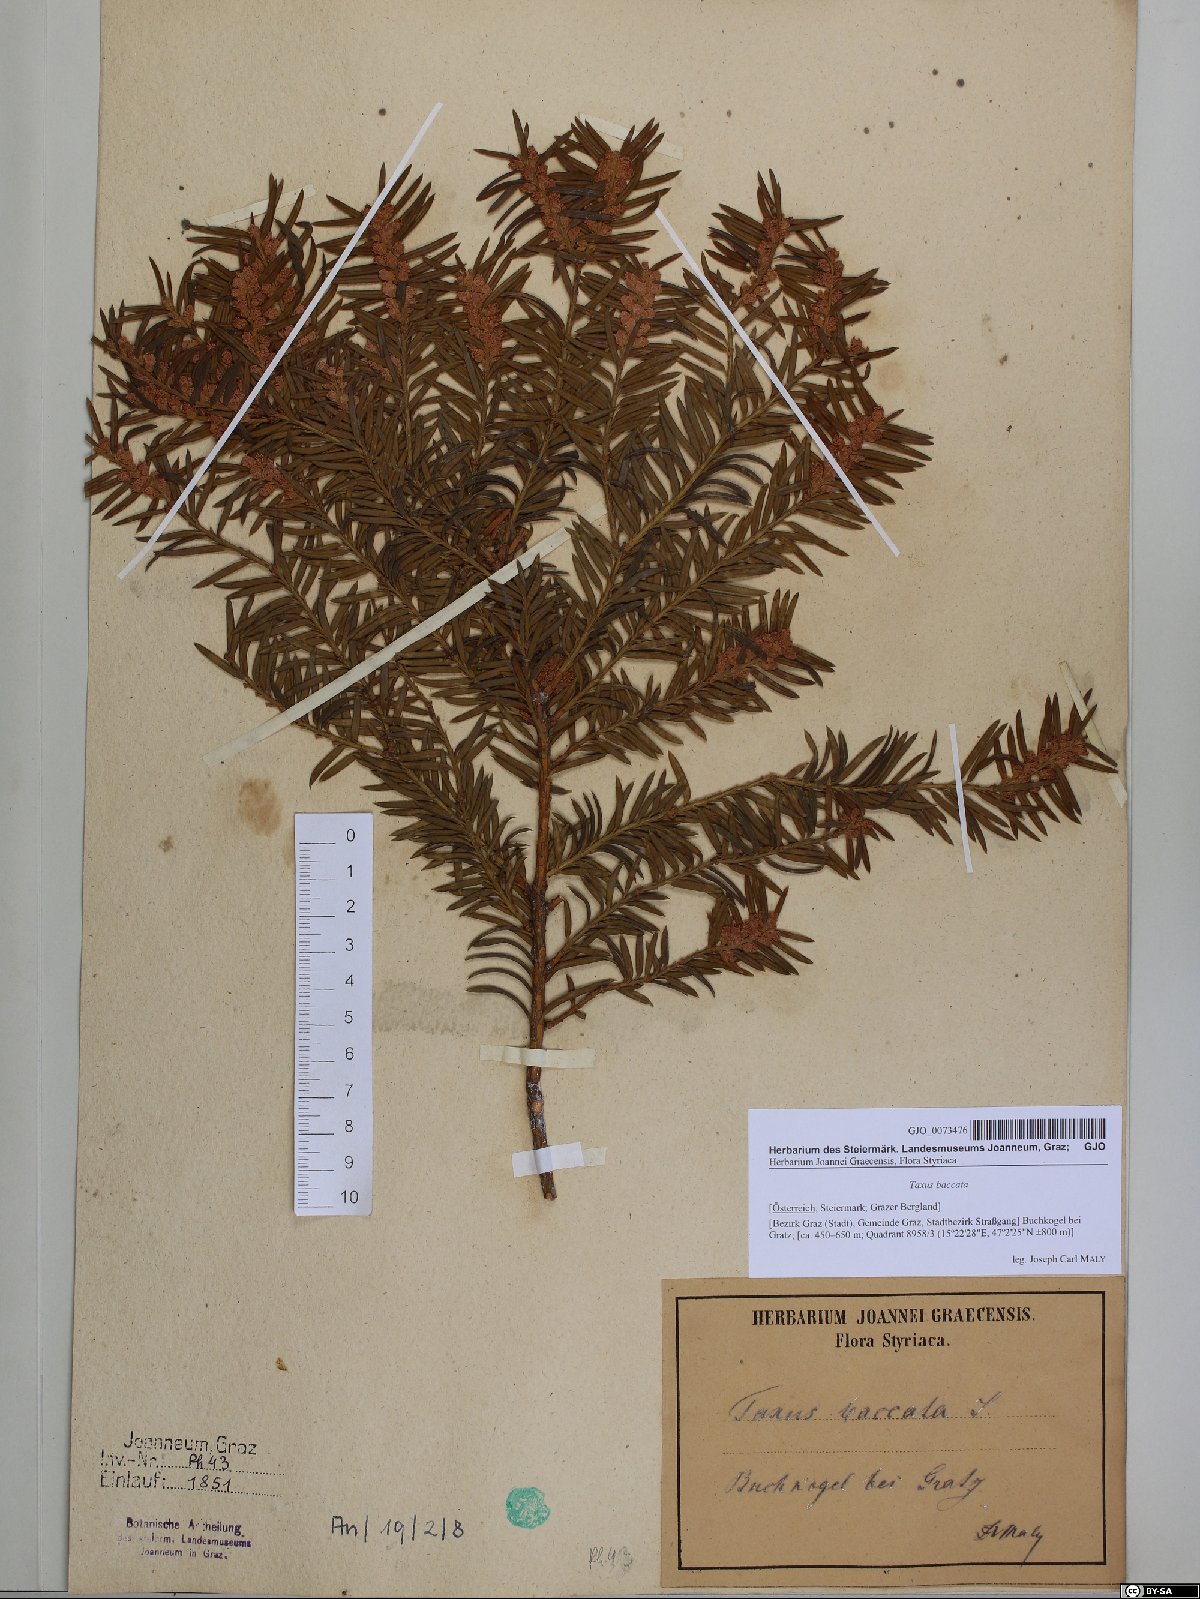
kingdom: Plantae
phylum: Tracheophyta
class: Pinopsida
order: Pinales
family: Taxaceae
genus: Taxus
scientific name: Taxus baccata
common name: Yew
